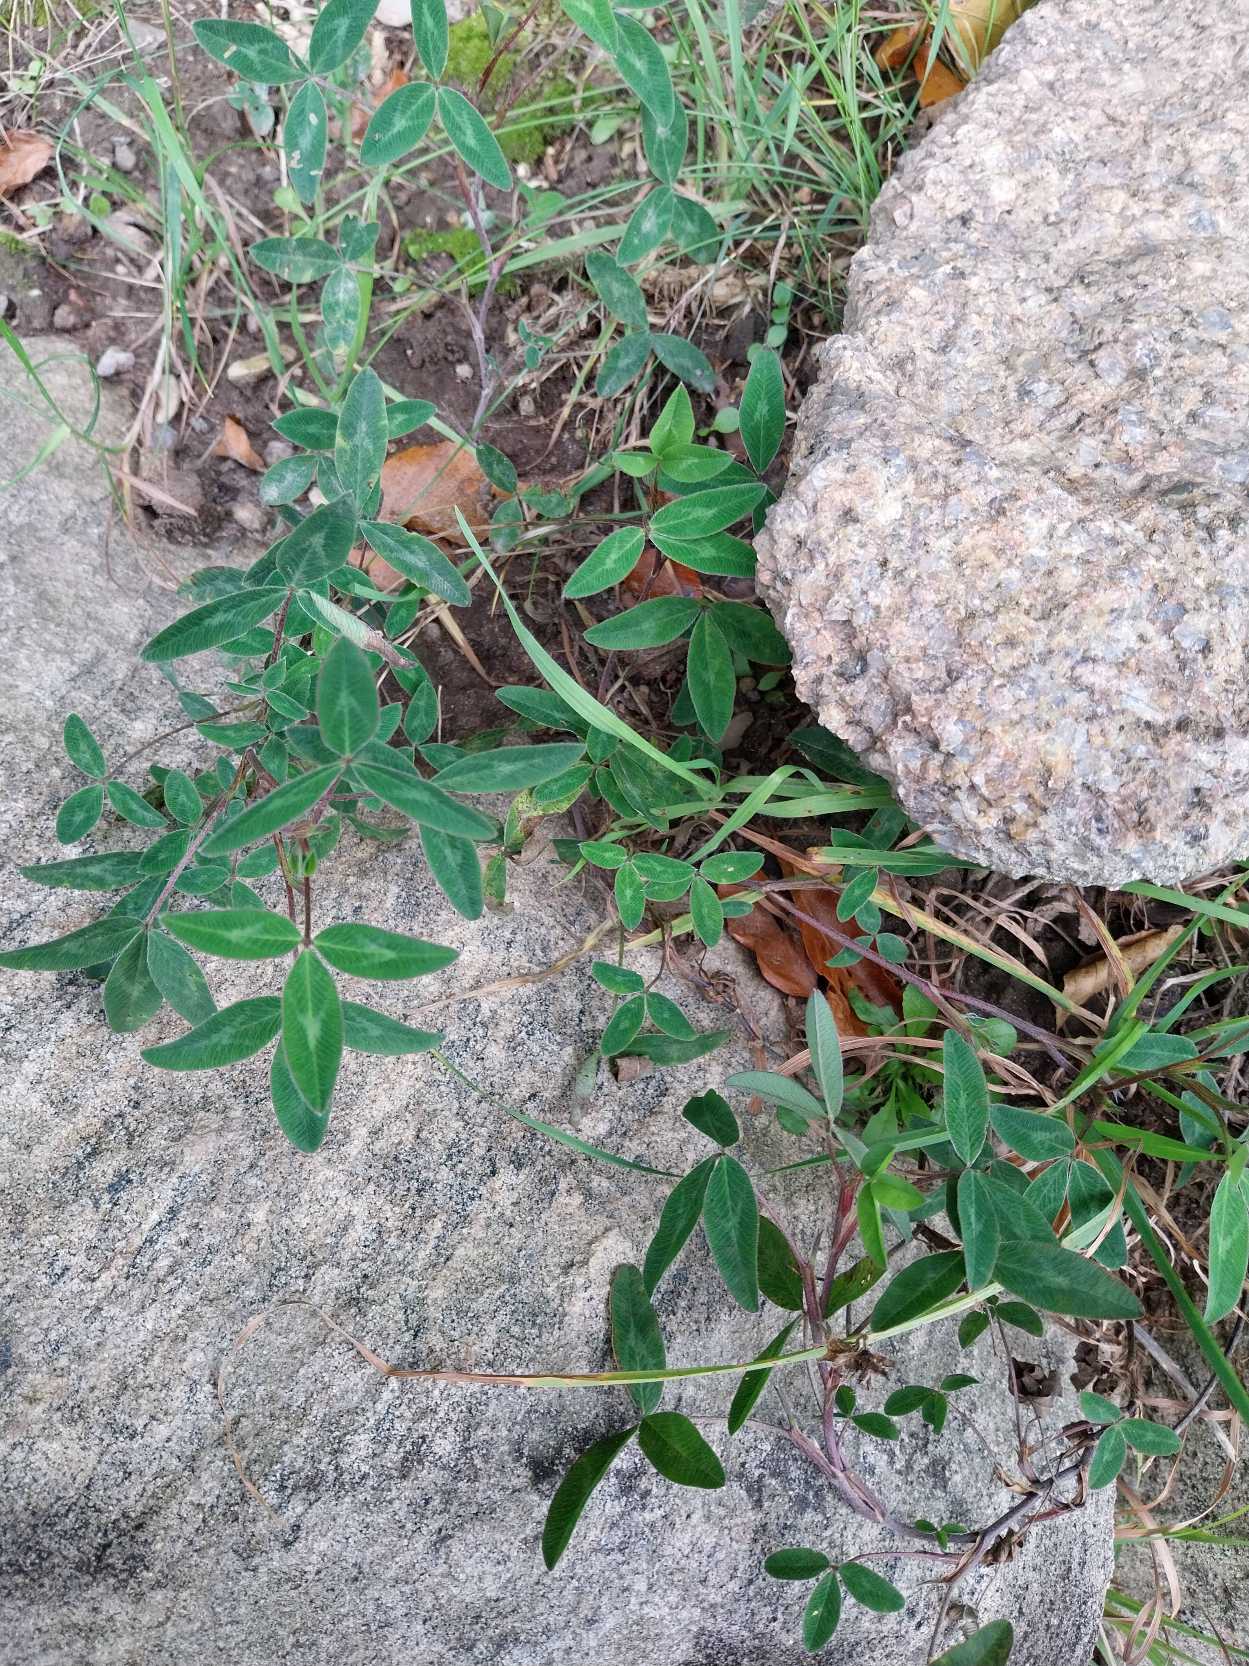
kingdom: Plantae
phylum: Tracheophyta
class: Magnoliopsida
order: Fabales
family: Fabaceae
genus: Trifolium
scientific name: Trifolium medium
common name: Bugtet kløver
